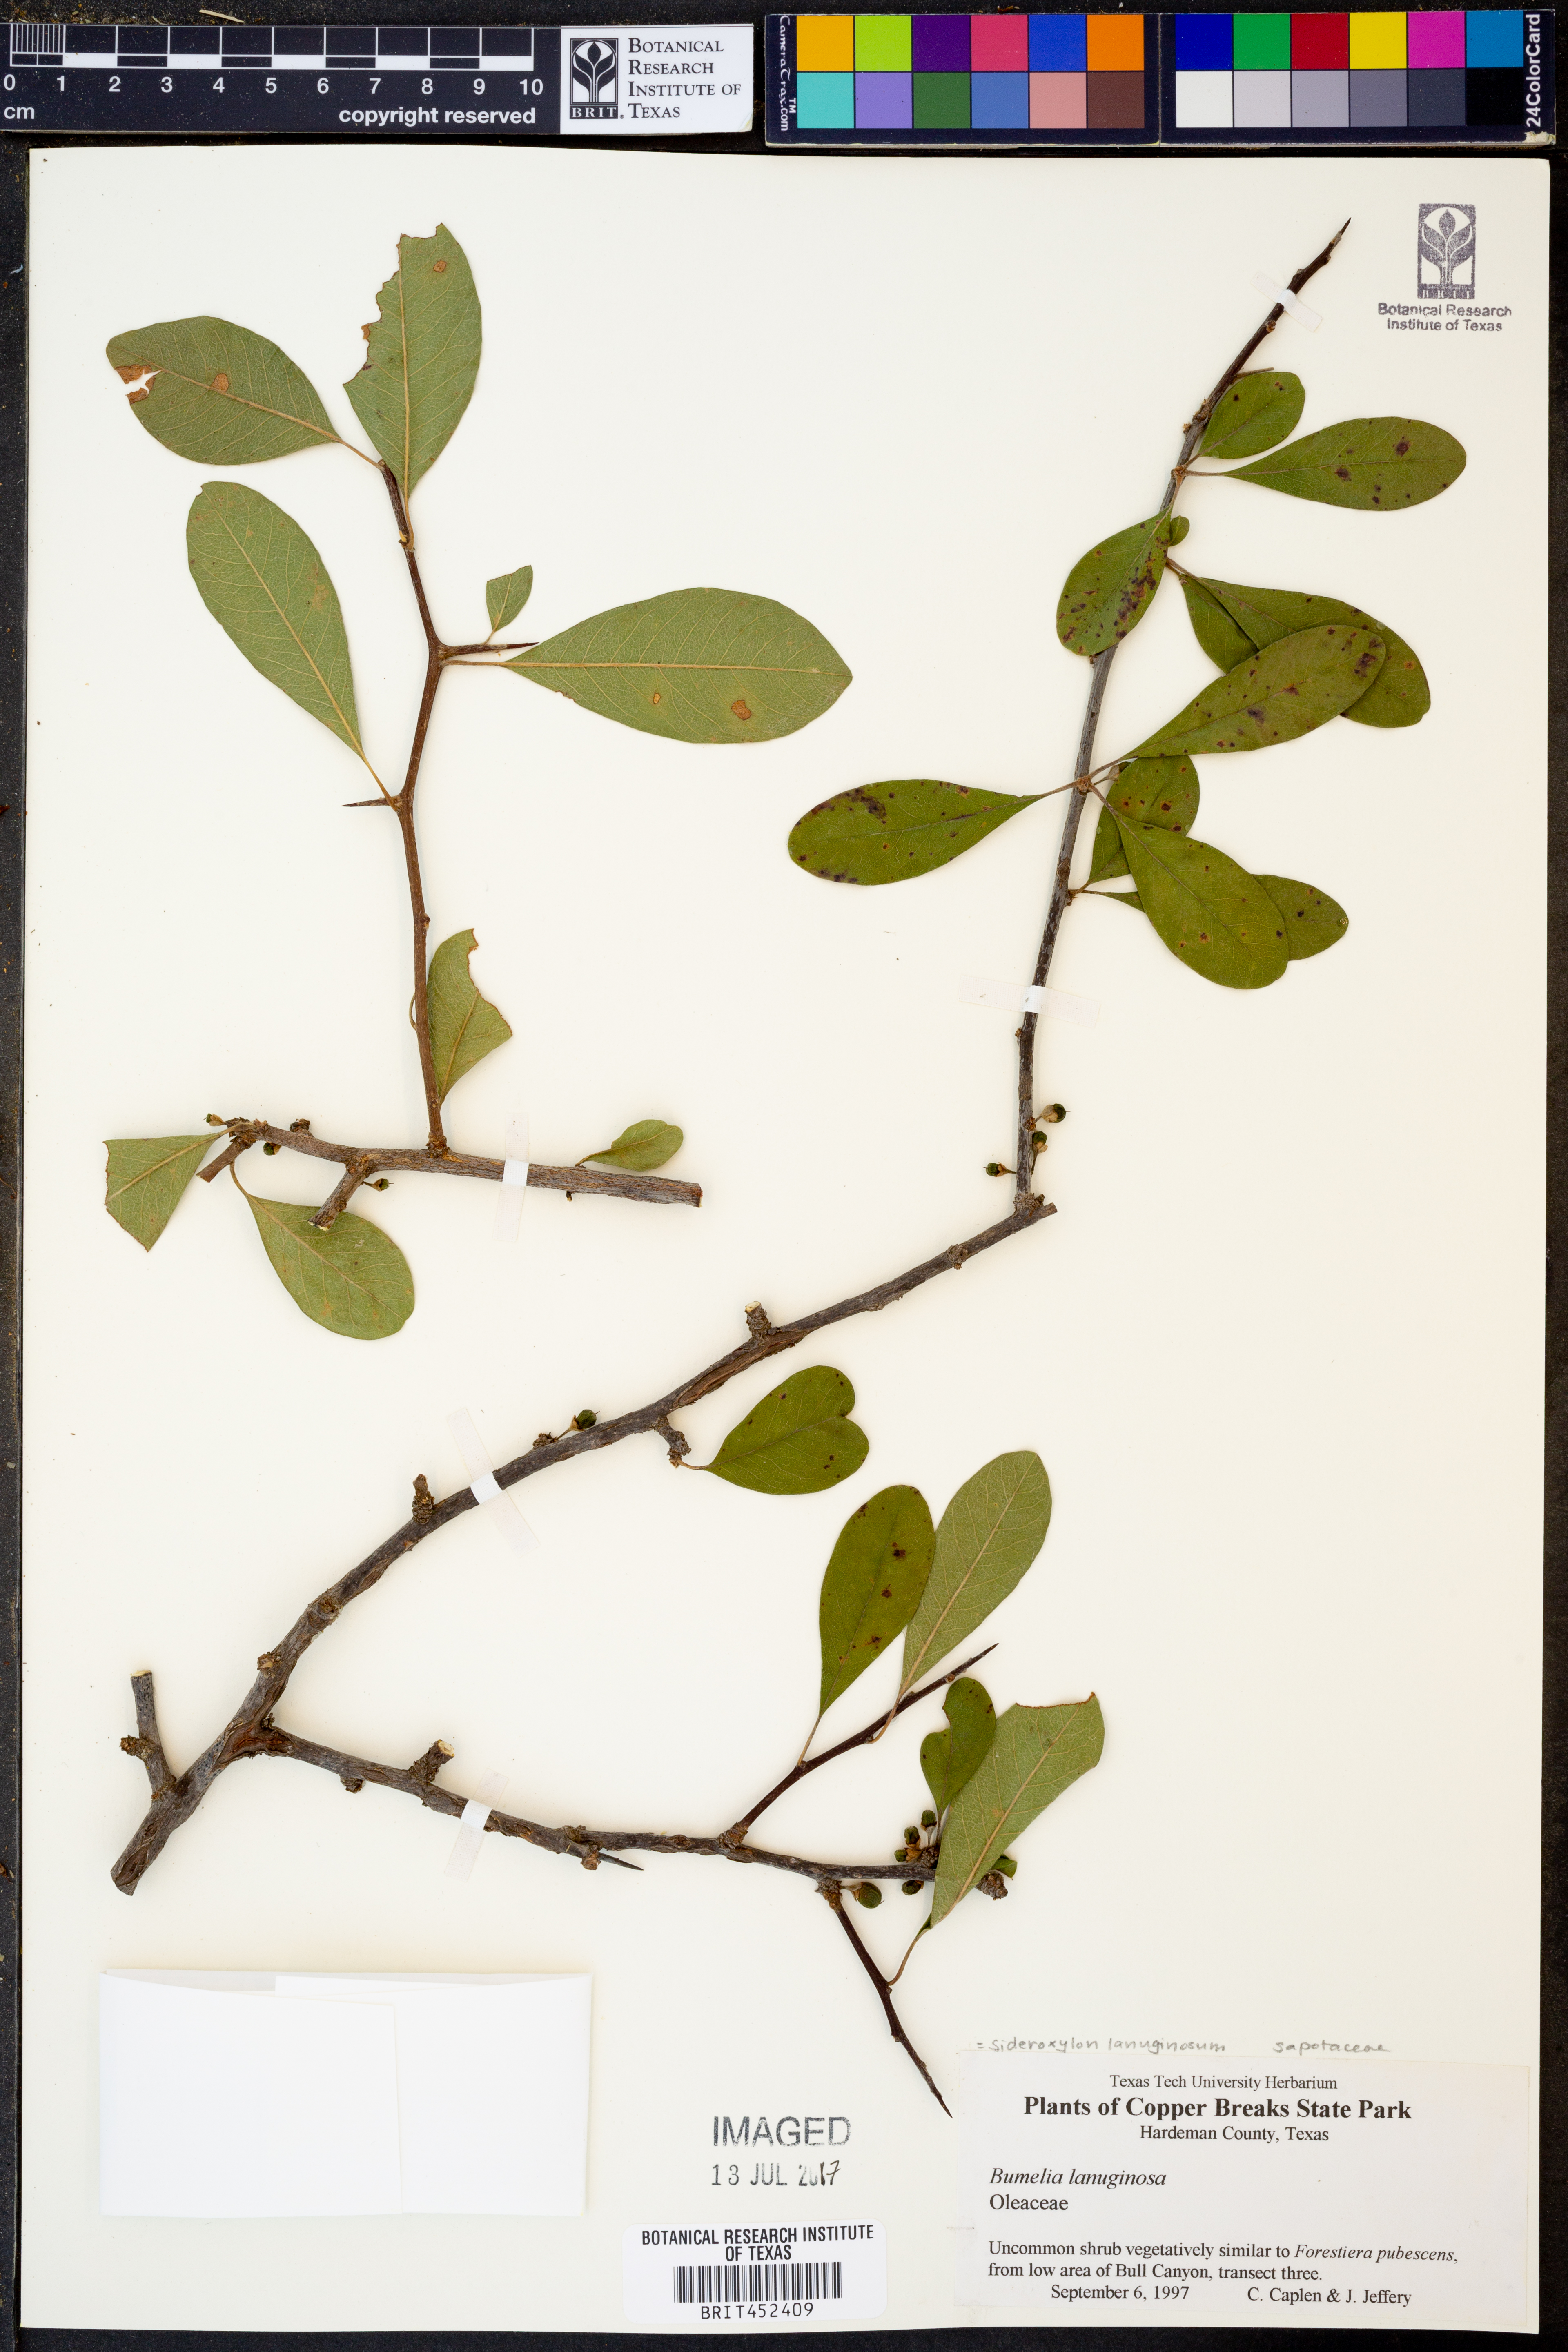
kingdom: Plantae
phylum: Tracheophyta
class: Magnoliopsida
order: Ericales
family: Sapotaceae
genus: Sideroxylon
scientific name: Sideroxylon lanuginosum
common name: Chittamwood
